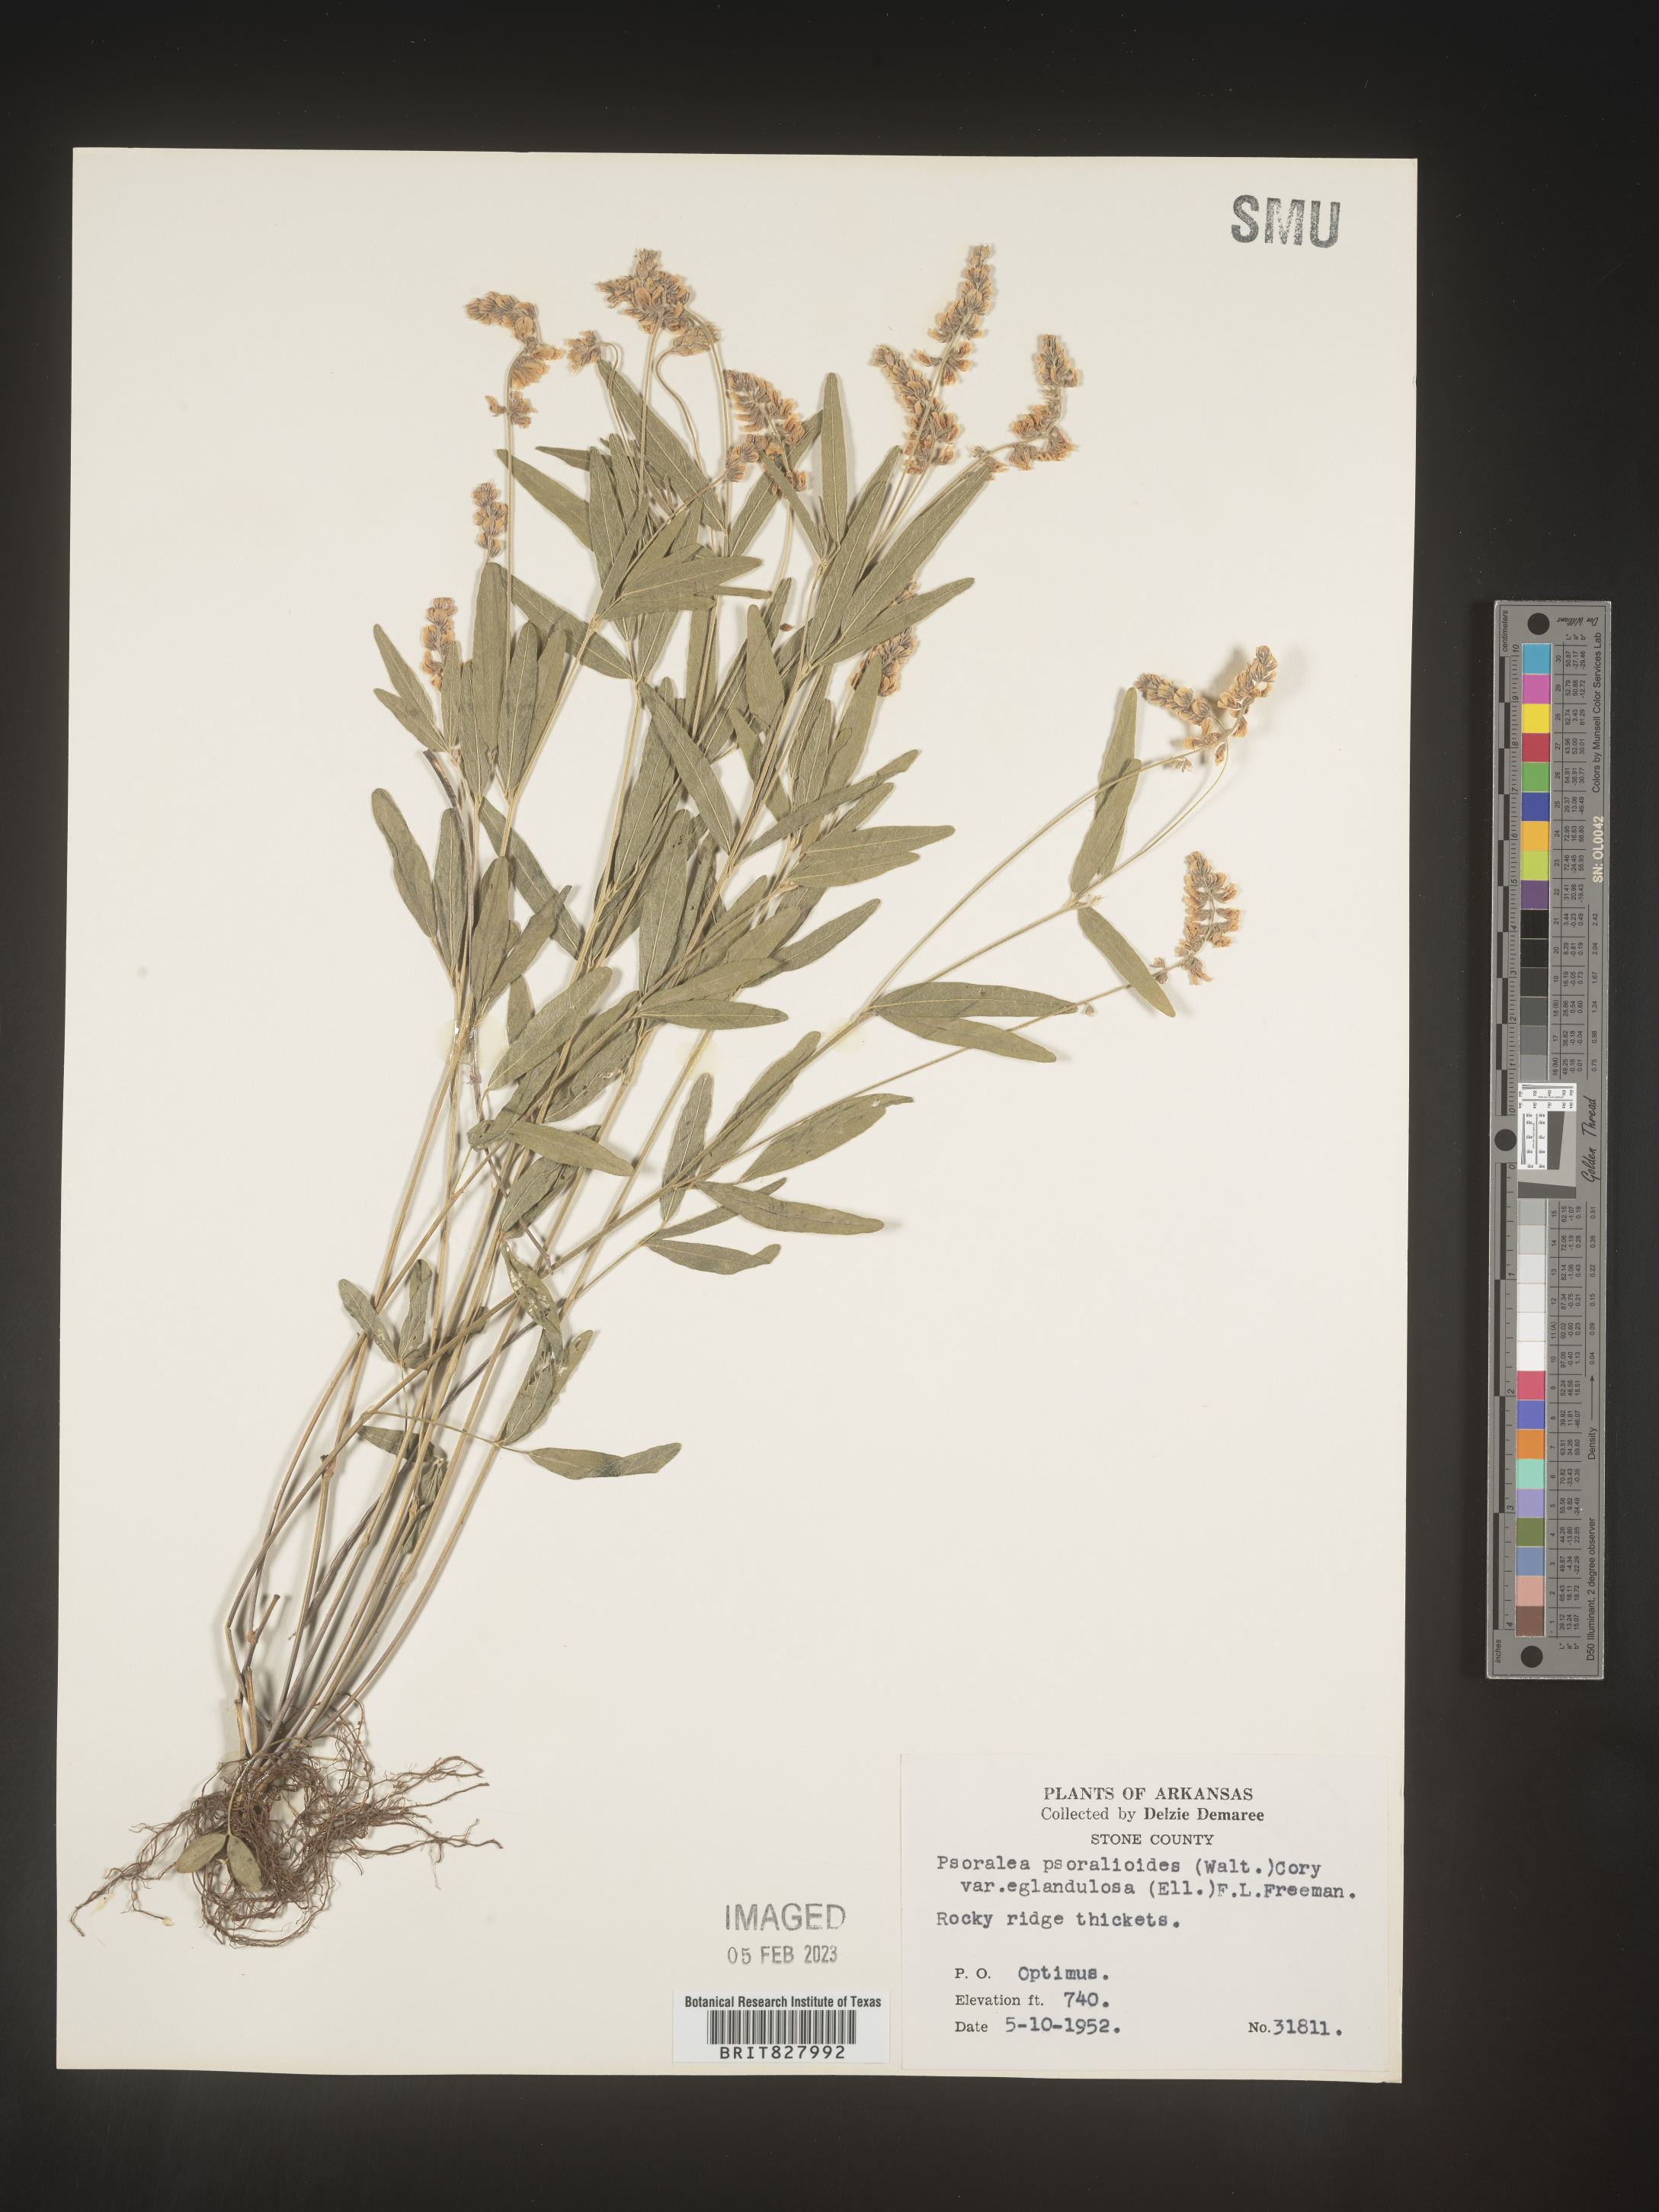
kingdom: Plantae
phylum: Tracheophyta
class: Magnoliopsida
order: Fabales
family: Fabaceae
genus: Orbexilum
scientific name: Orbexilum pedunculatum
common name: Sampson's snakeroot
